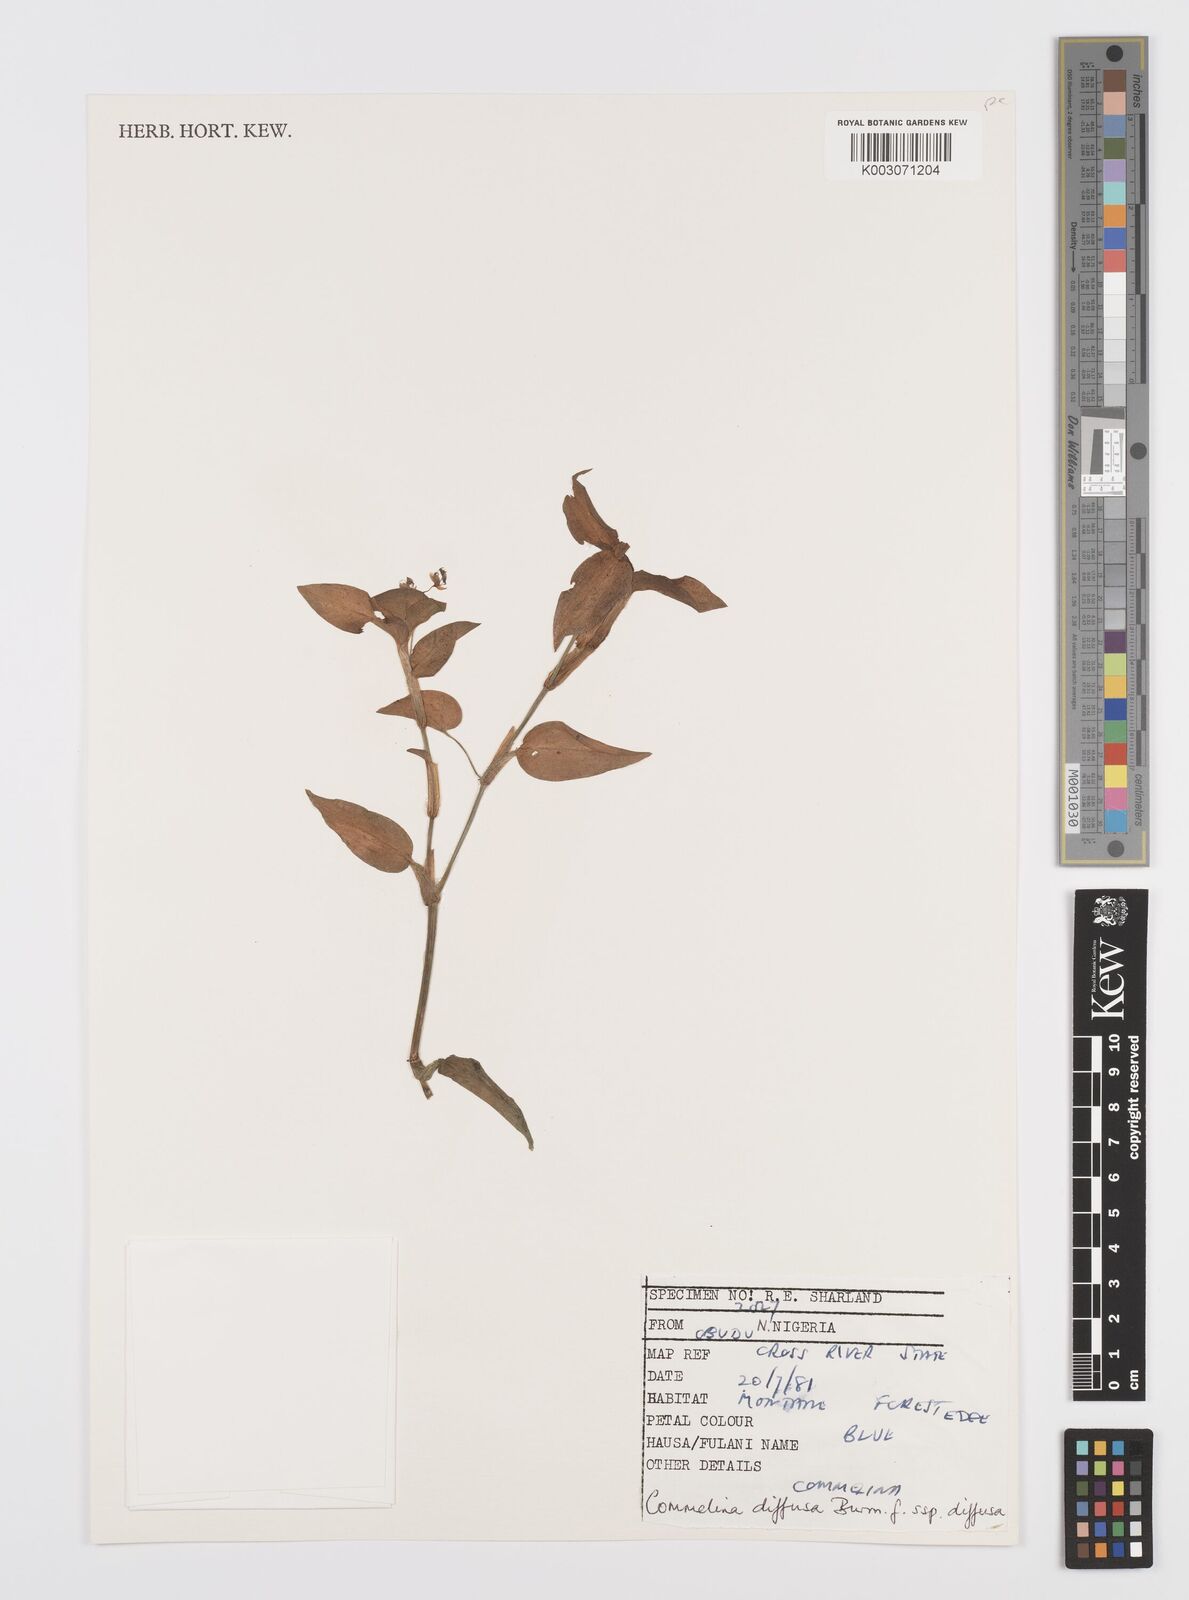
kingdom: Plantae
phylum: Tracheophyta
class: Liliopsida
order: Commelinales
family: Commelinaceae
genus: Commelina
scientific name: Commelina diffusa
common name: Climbing dayflower
